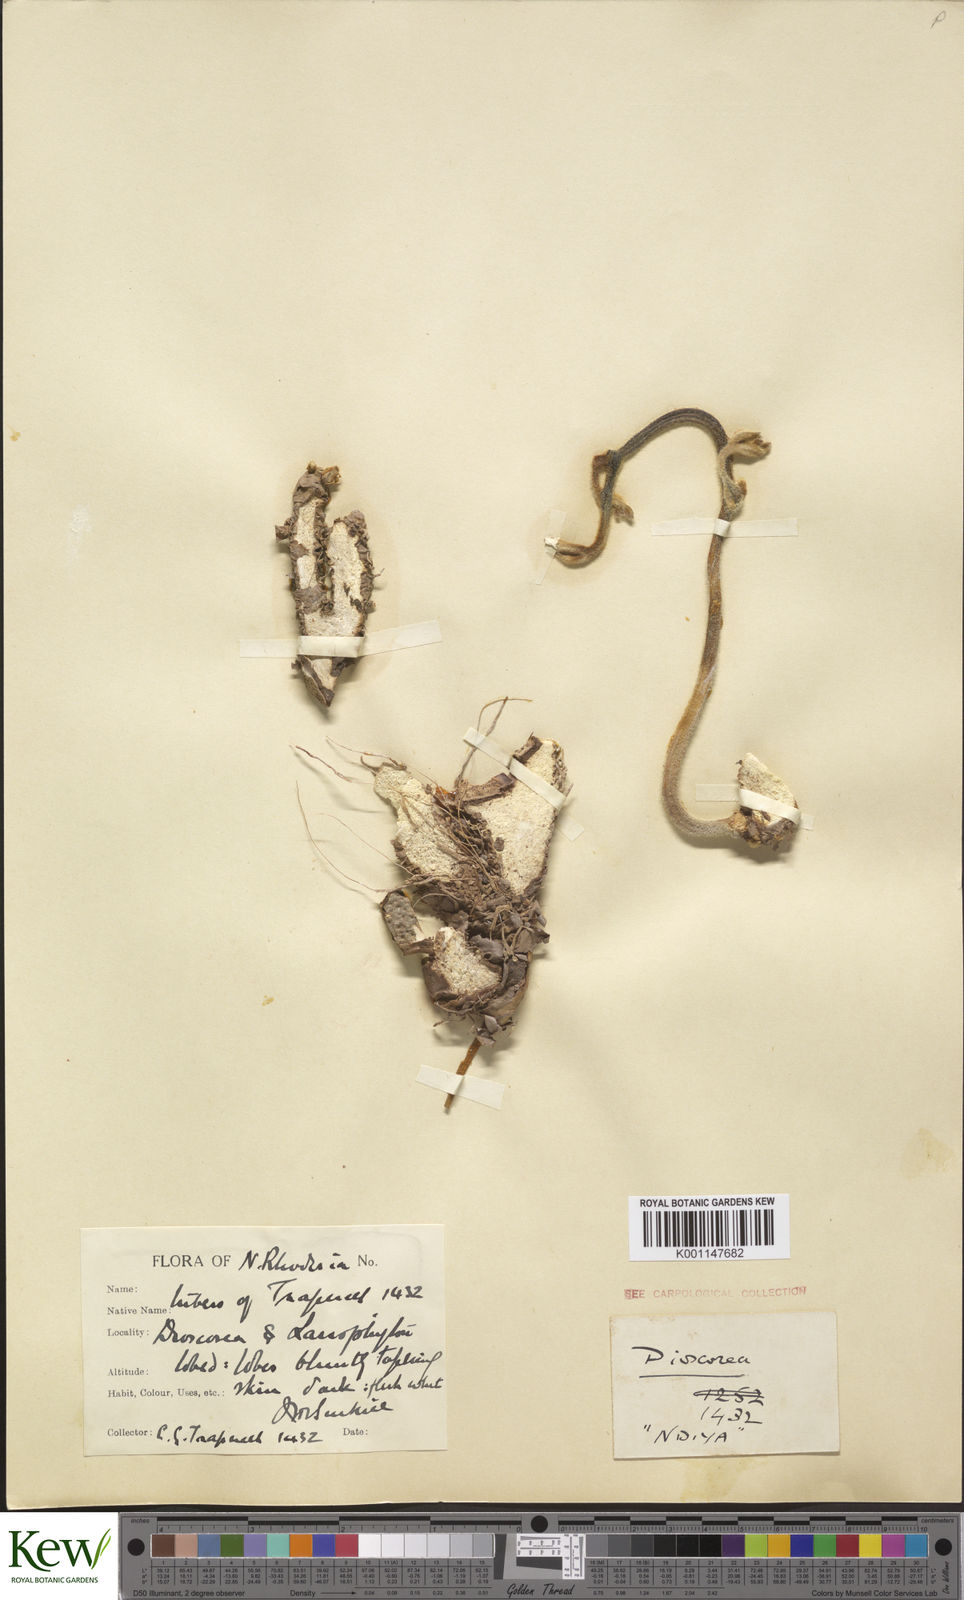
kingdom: Plantae
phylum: Tracheophyta
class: Liliopsida
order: Dioscoreales
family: Dioscoreaceae
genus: Dioscorea
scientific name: Dioscorea dumetorum
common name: African bitter yam
